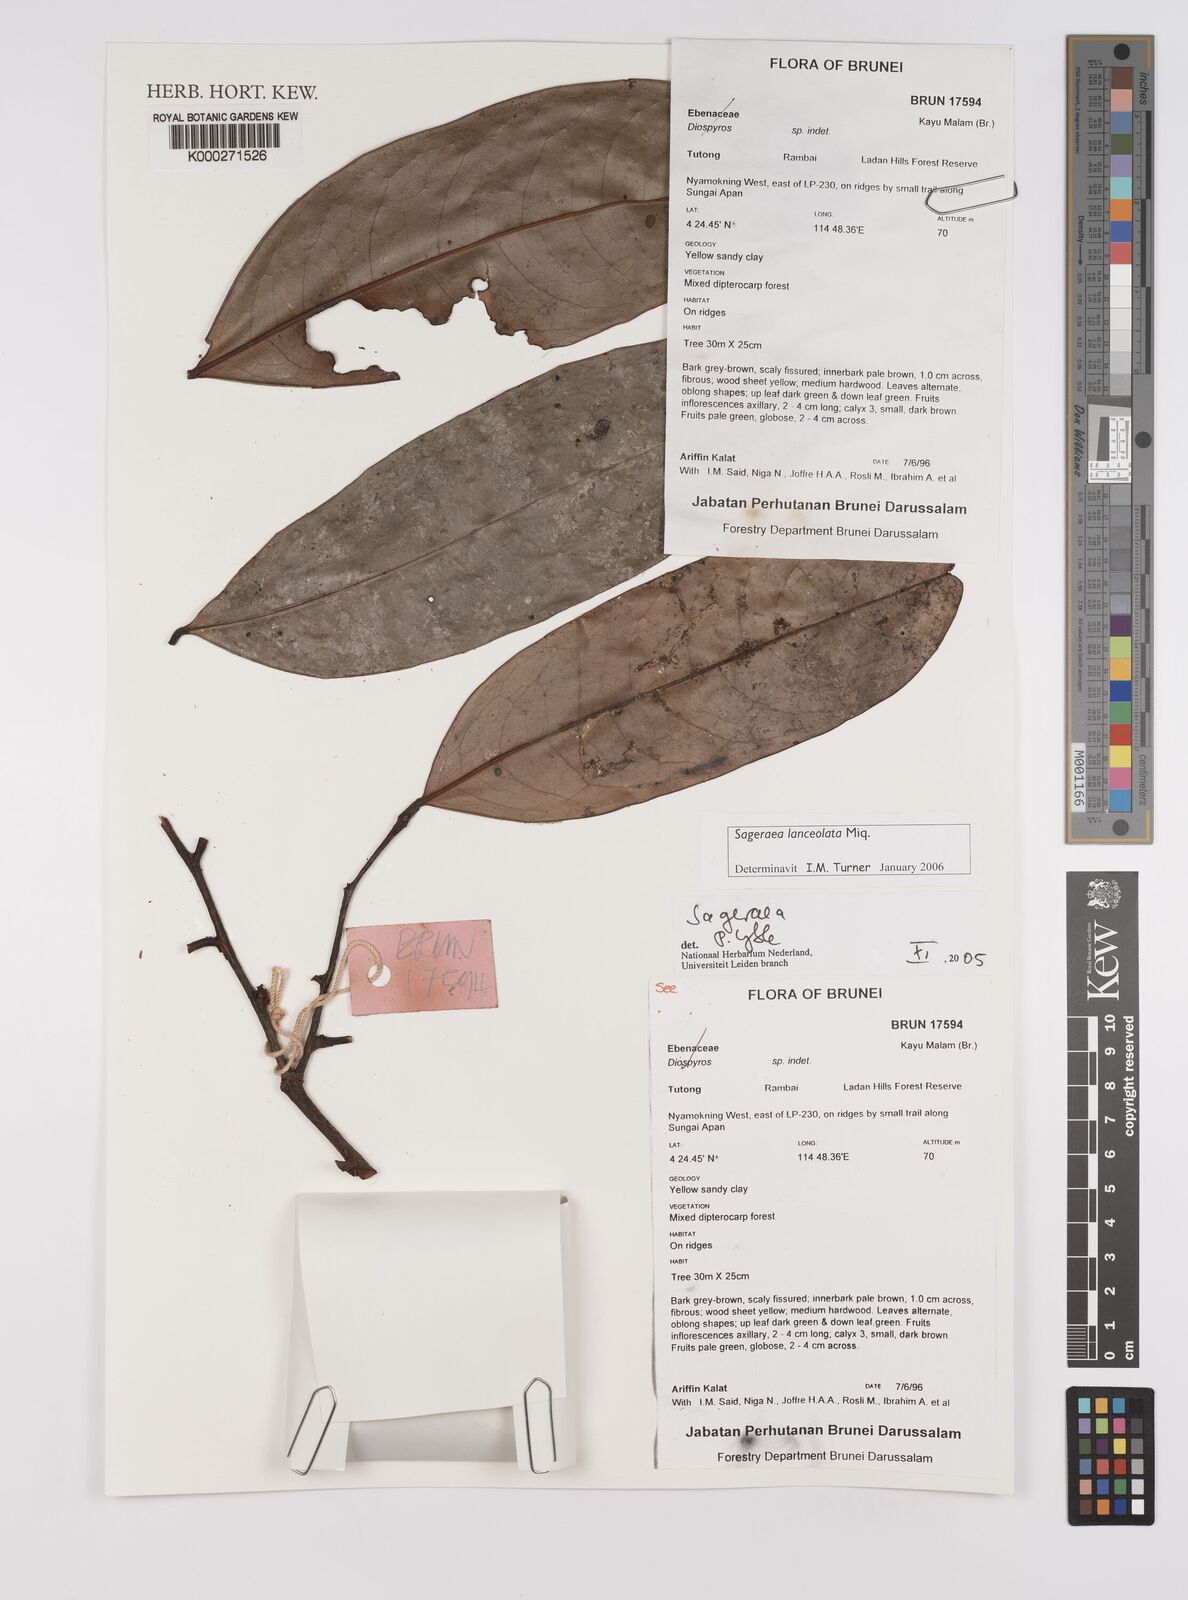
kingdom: Plantae
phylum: Tracheophyta
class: Magnoliopsida
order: Magnoliales
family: Annonaceae
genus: Sageraea
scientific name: Sageraea lanceolata
